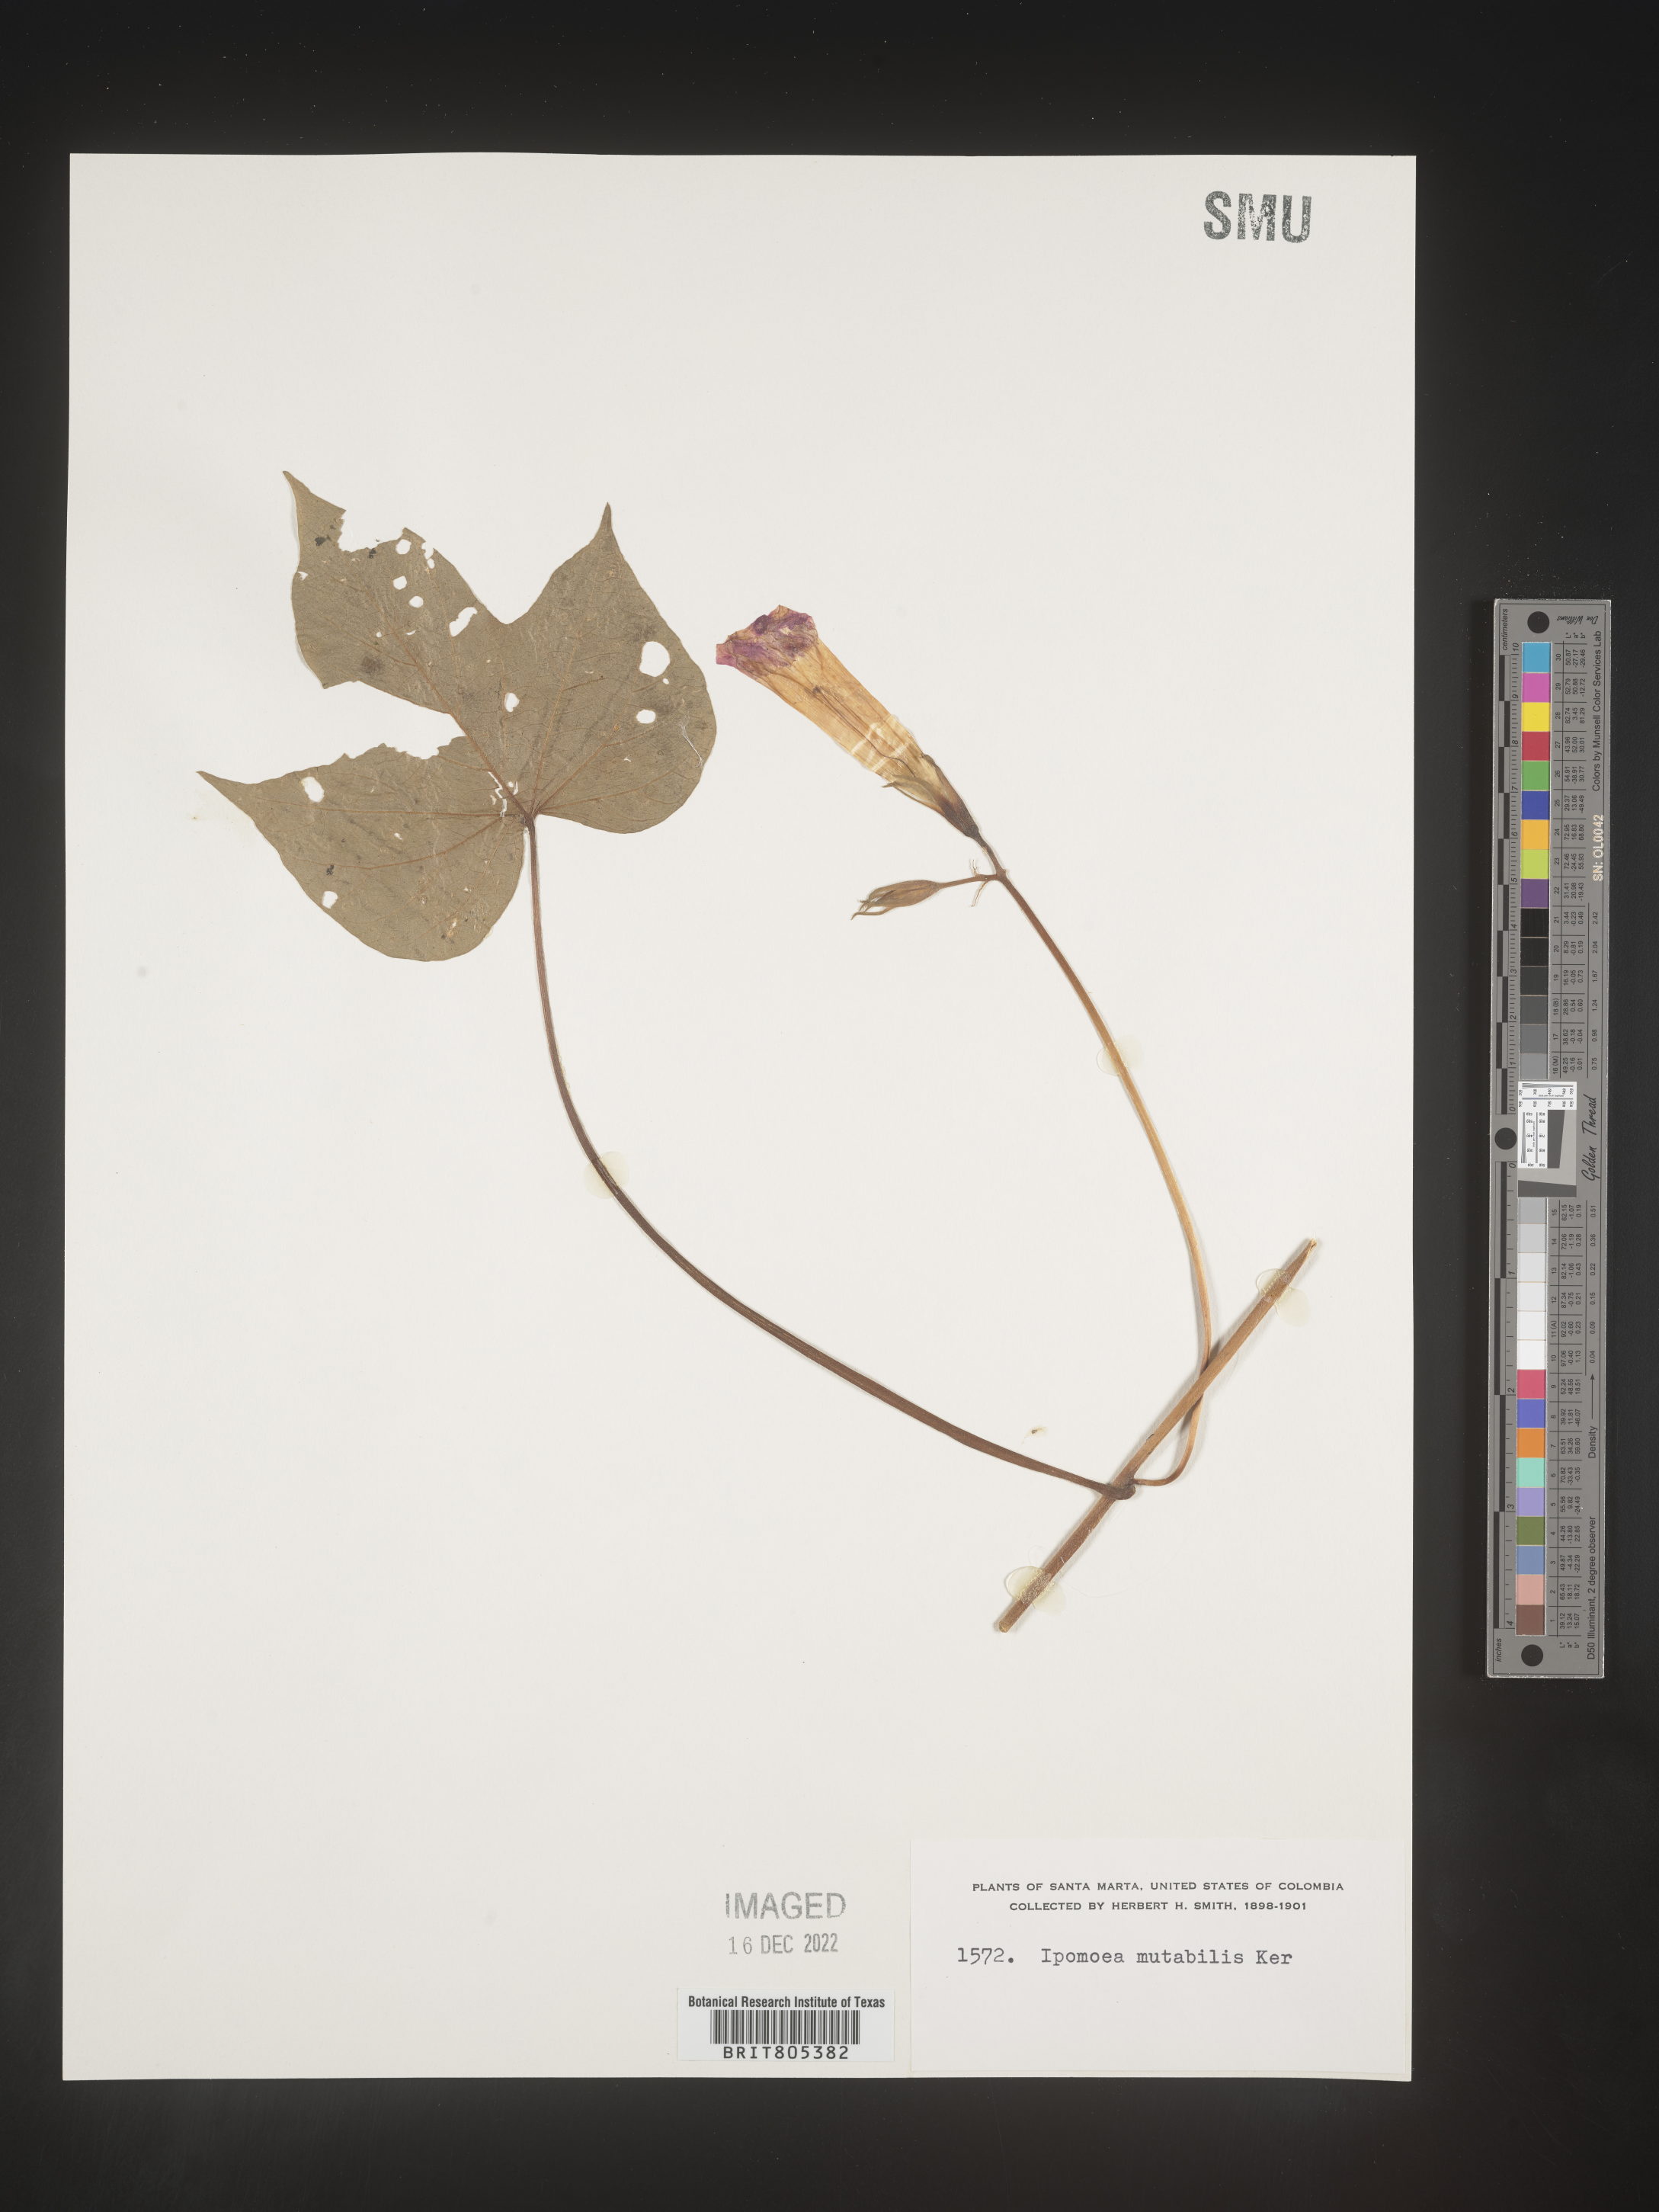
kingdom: Plantae
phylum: Tracheophyta
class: Magnoliopsida
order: Solanales
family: Convolvulaceae
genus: Ipomoea
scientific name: Ipomoea
